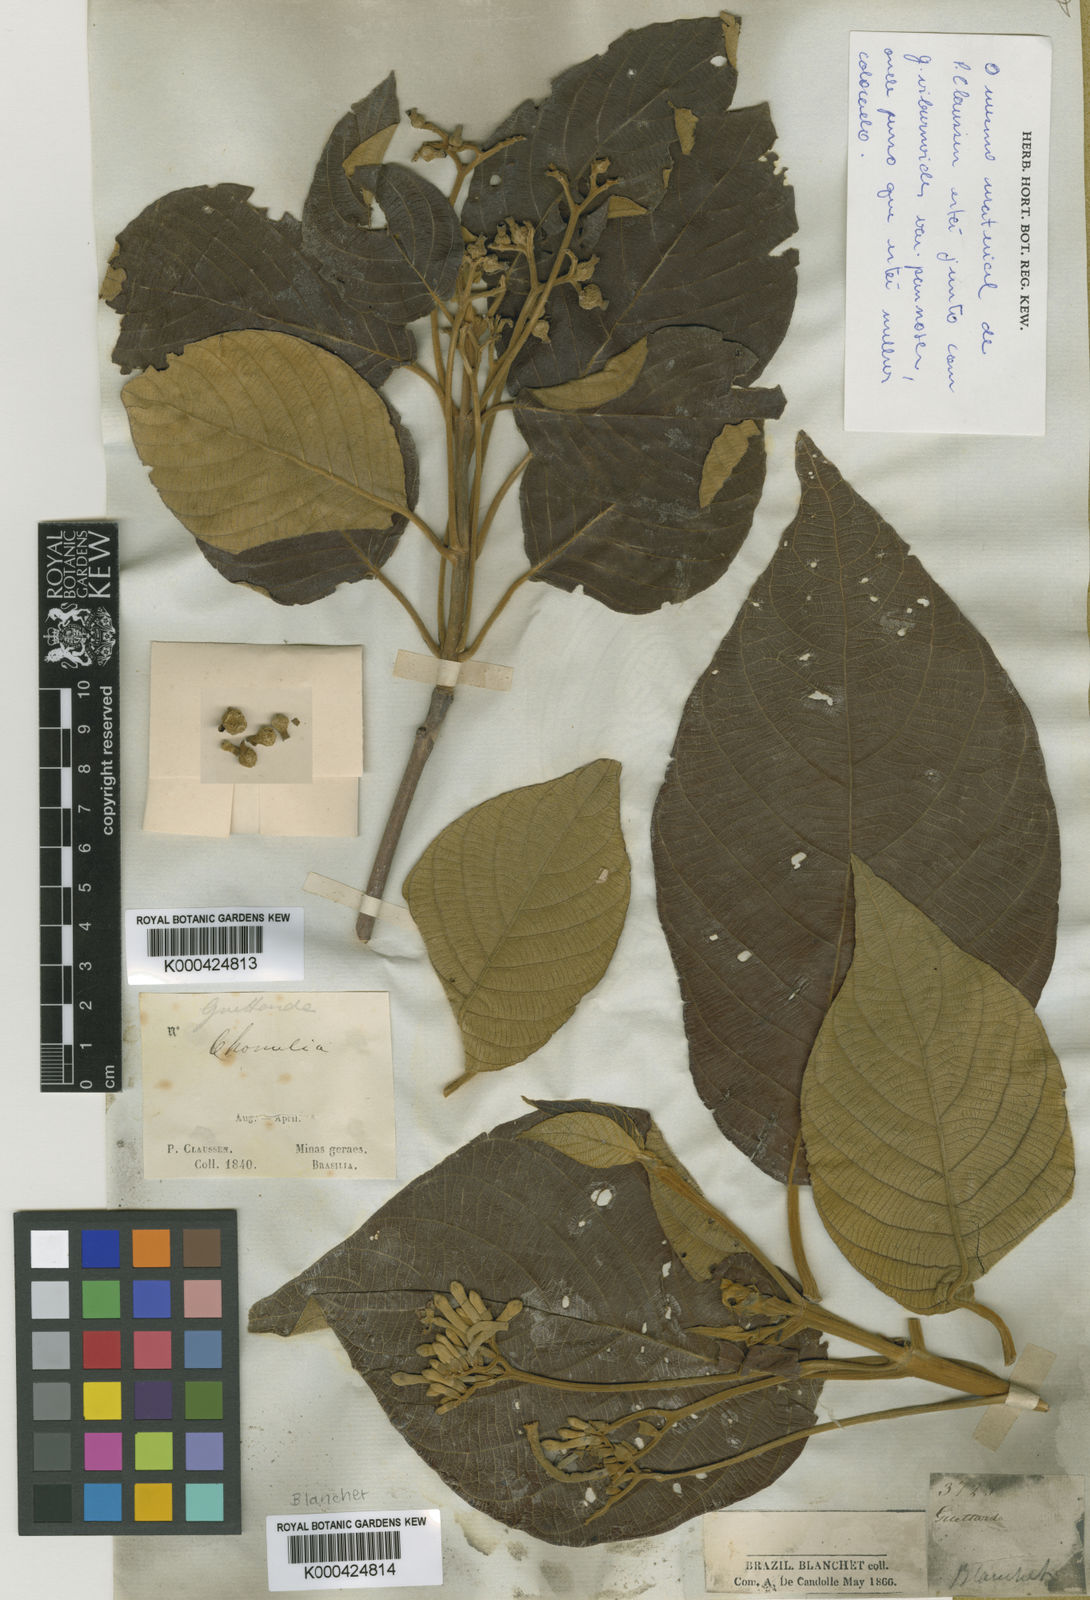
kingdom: Plantae
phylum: Tracheophyta
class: Magnoliopsida
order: Gentianales
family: Rubiaceae
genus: Guettarda
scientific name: Guettarda
